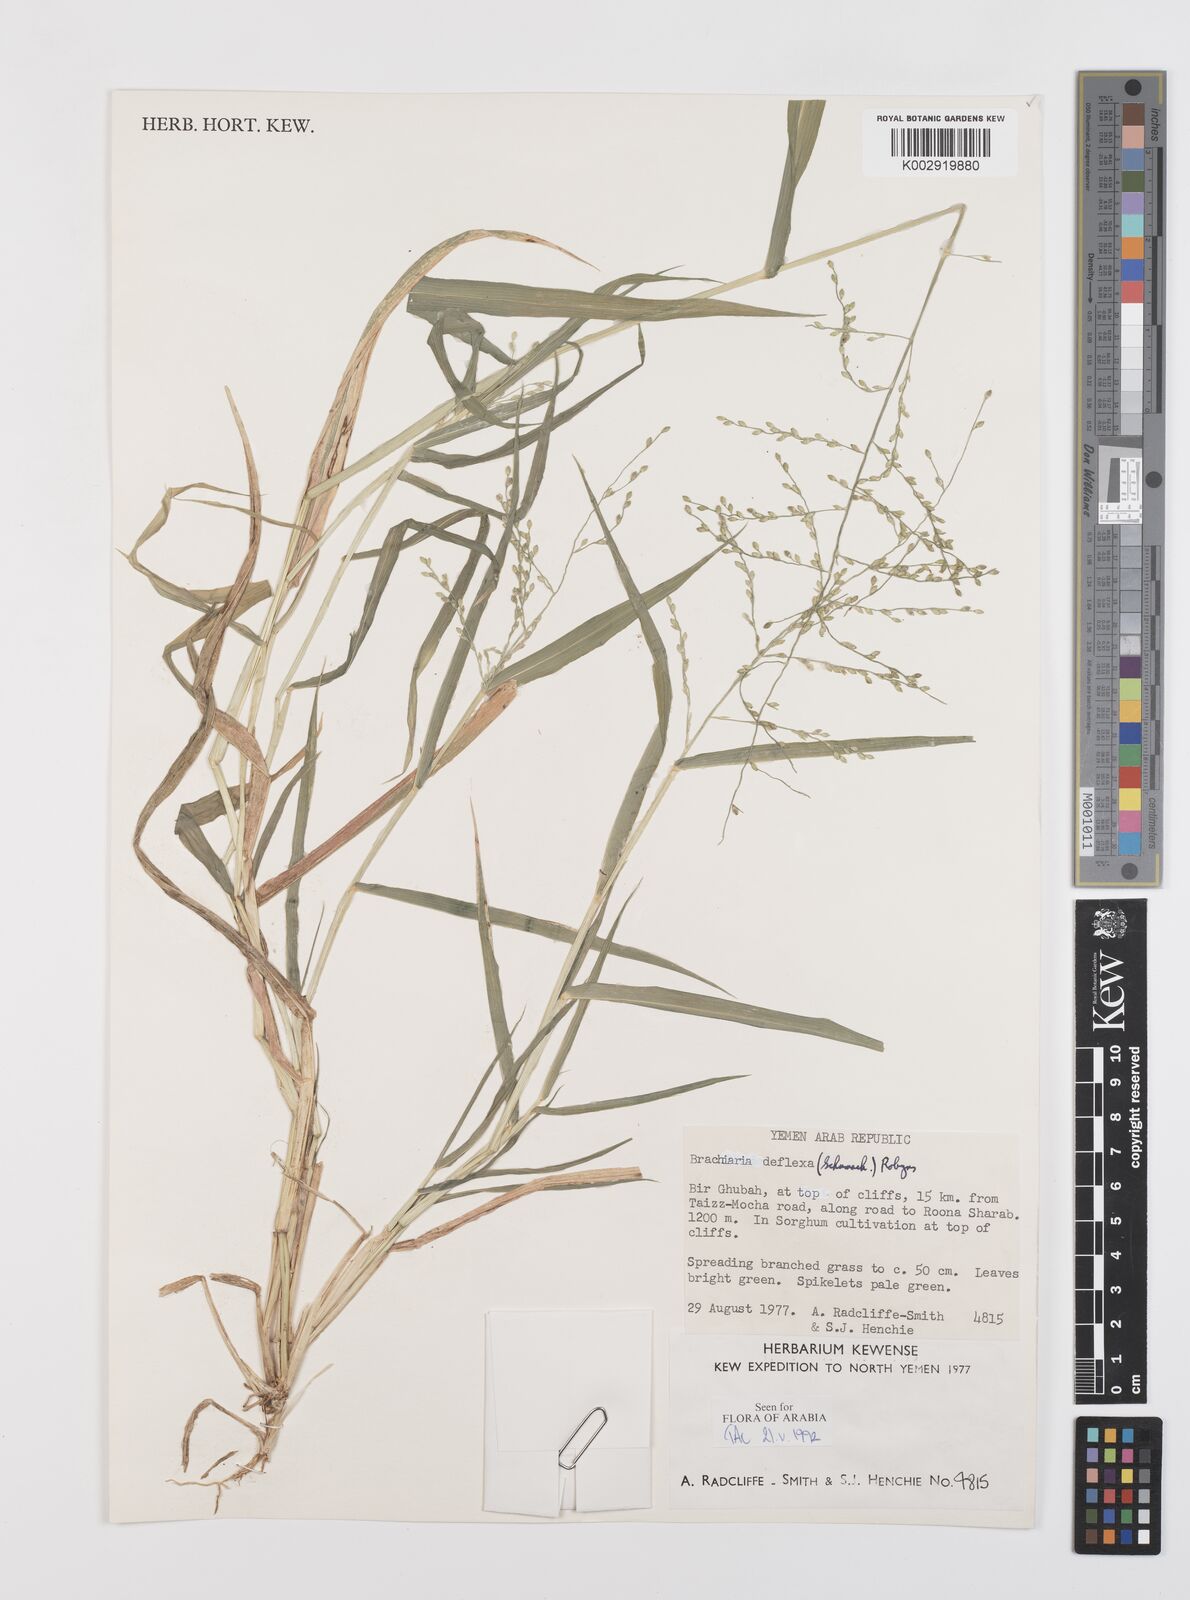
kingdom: Plantae
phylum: Tracheophyta
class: Liliopsida
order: Poales
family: Poaceae
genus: Urochloa
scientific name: Urochloa deflexa
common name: Guinea millet
